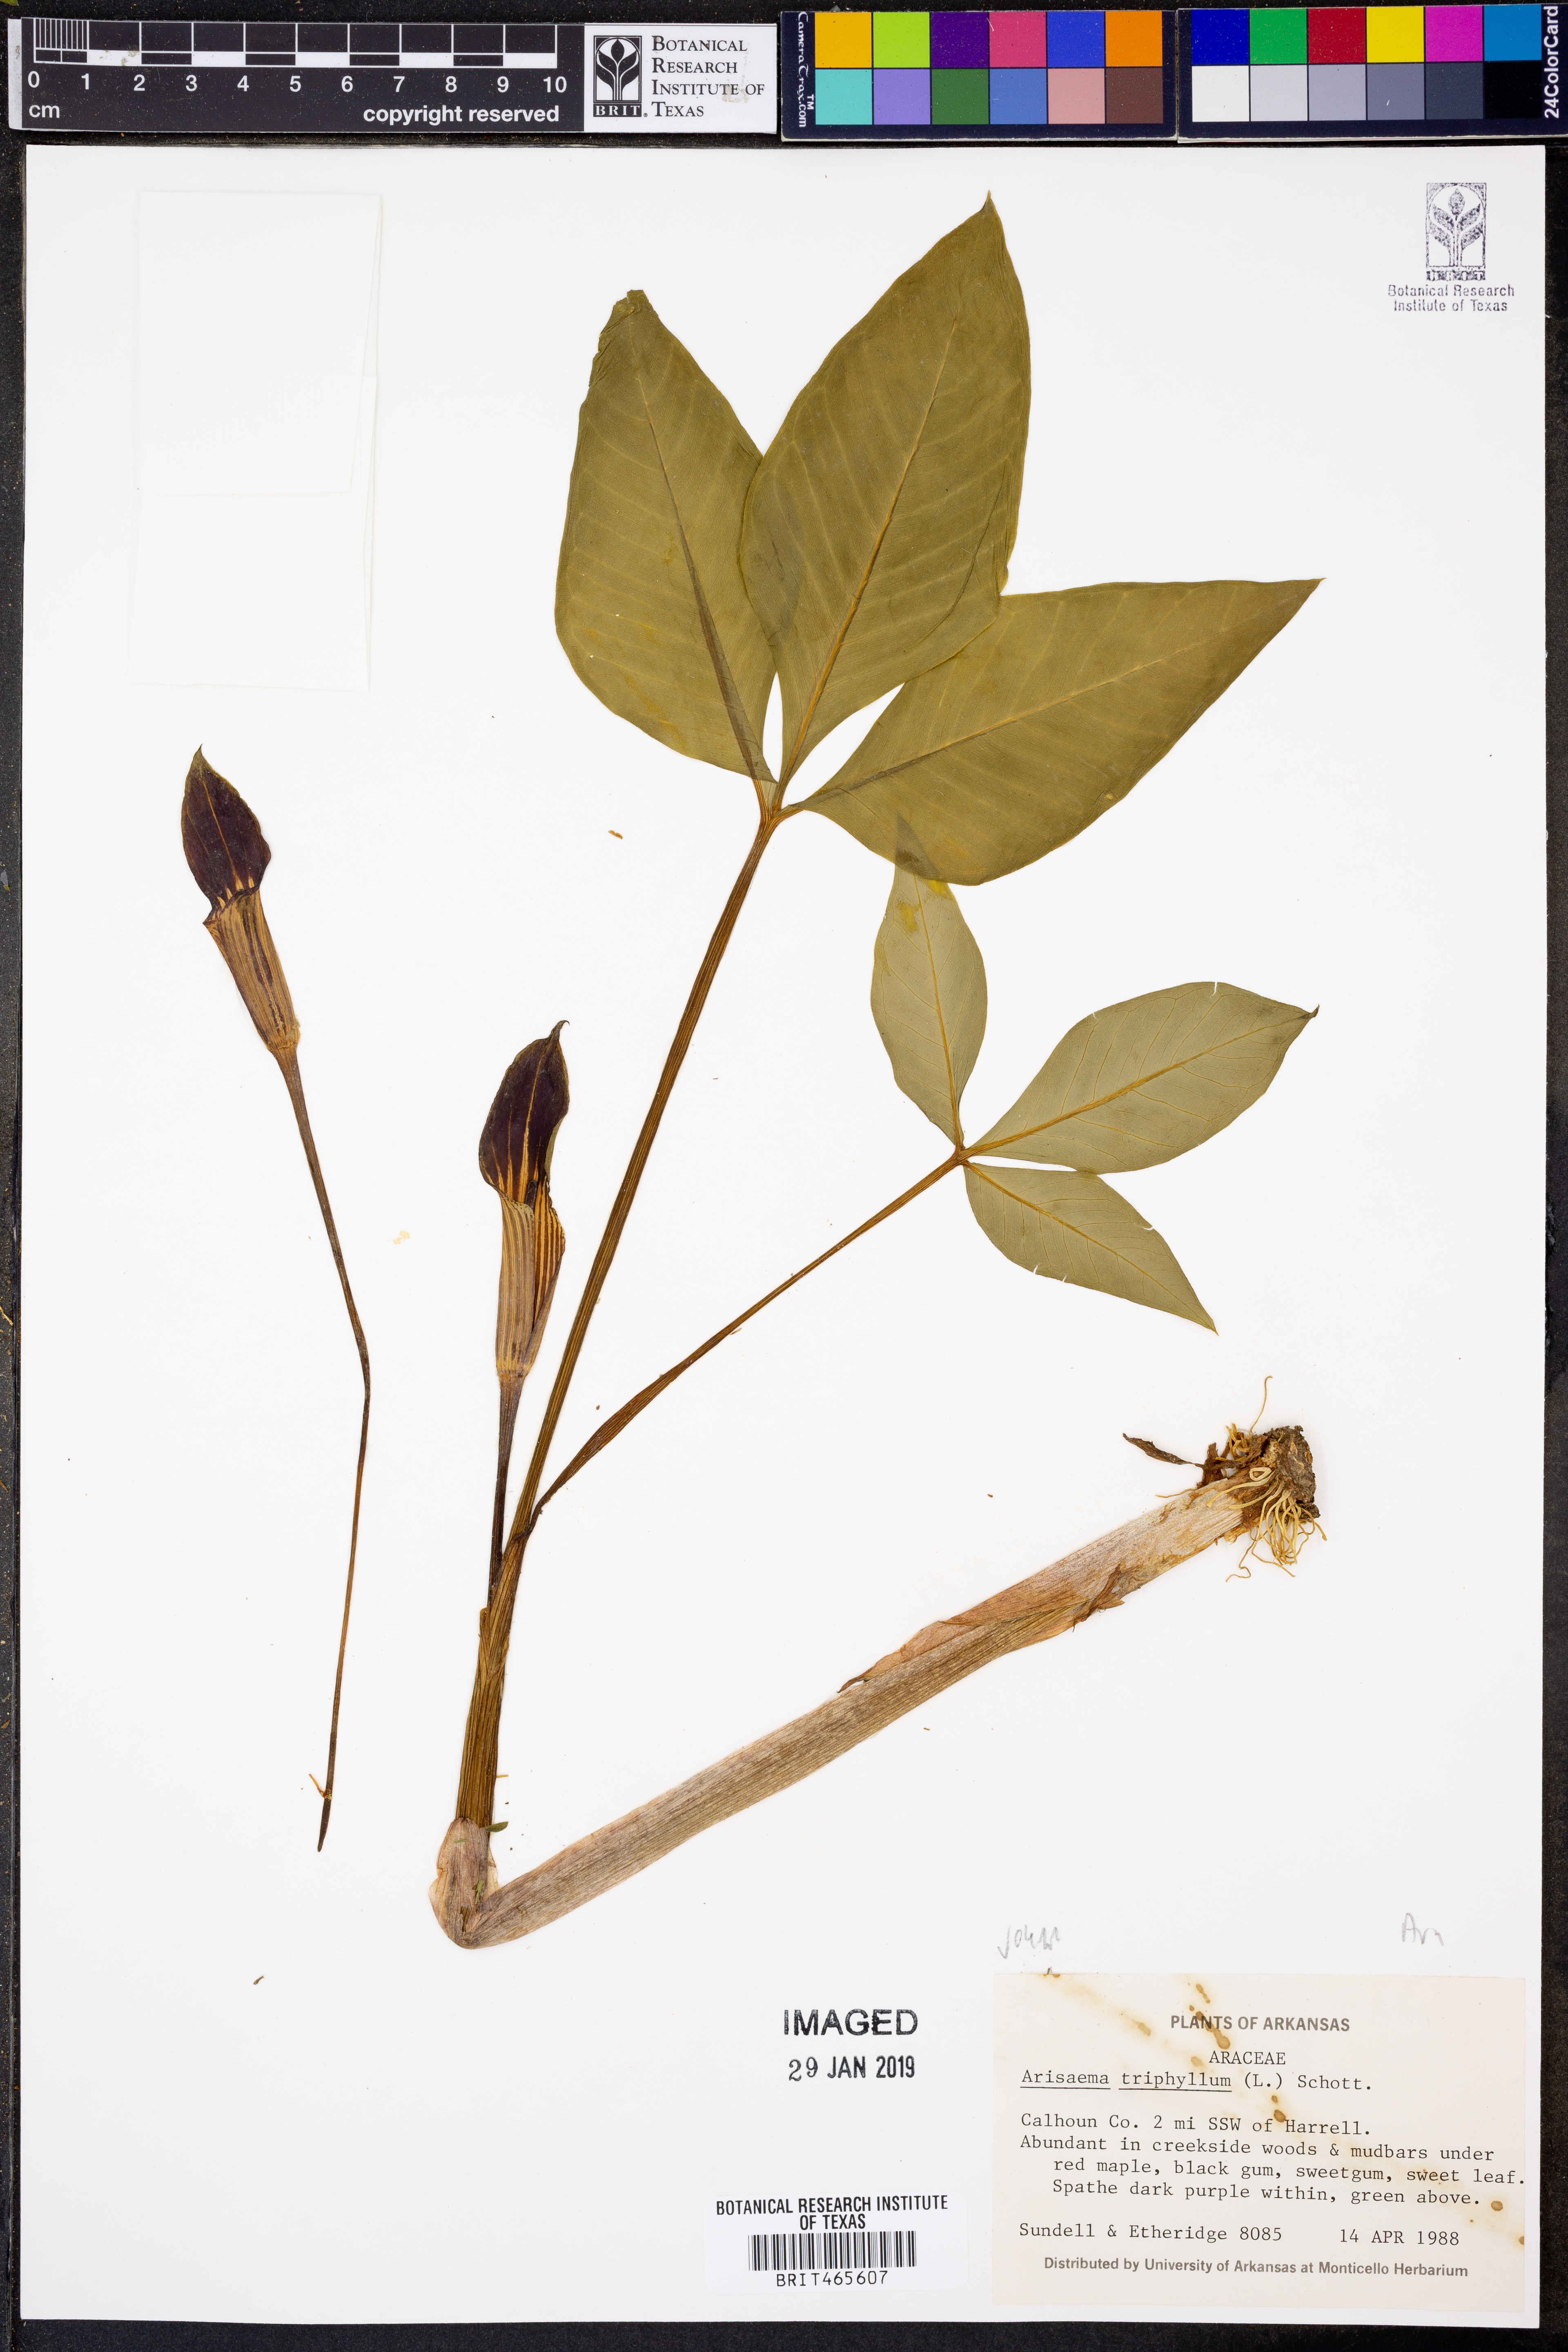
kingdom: Plantae
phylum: Tracheophyta
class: Liliopsida
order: Alismatales
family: Araceae
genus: Arisaema
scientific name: Arisaema triphyllum
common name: Jack-in-the-pulpit
